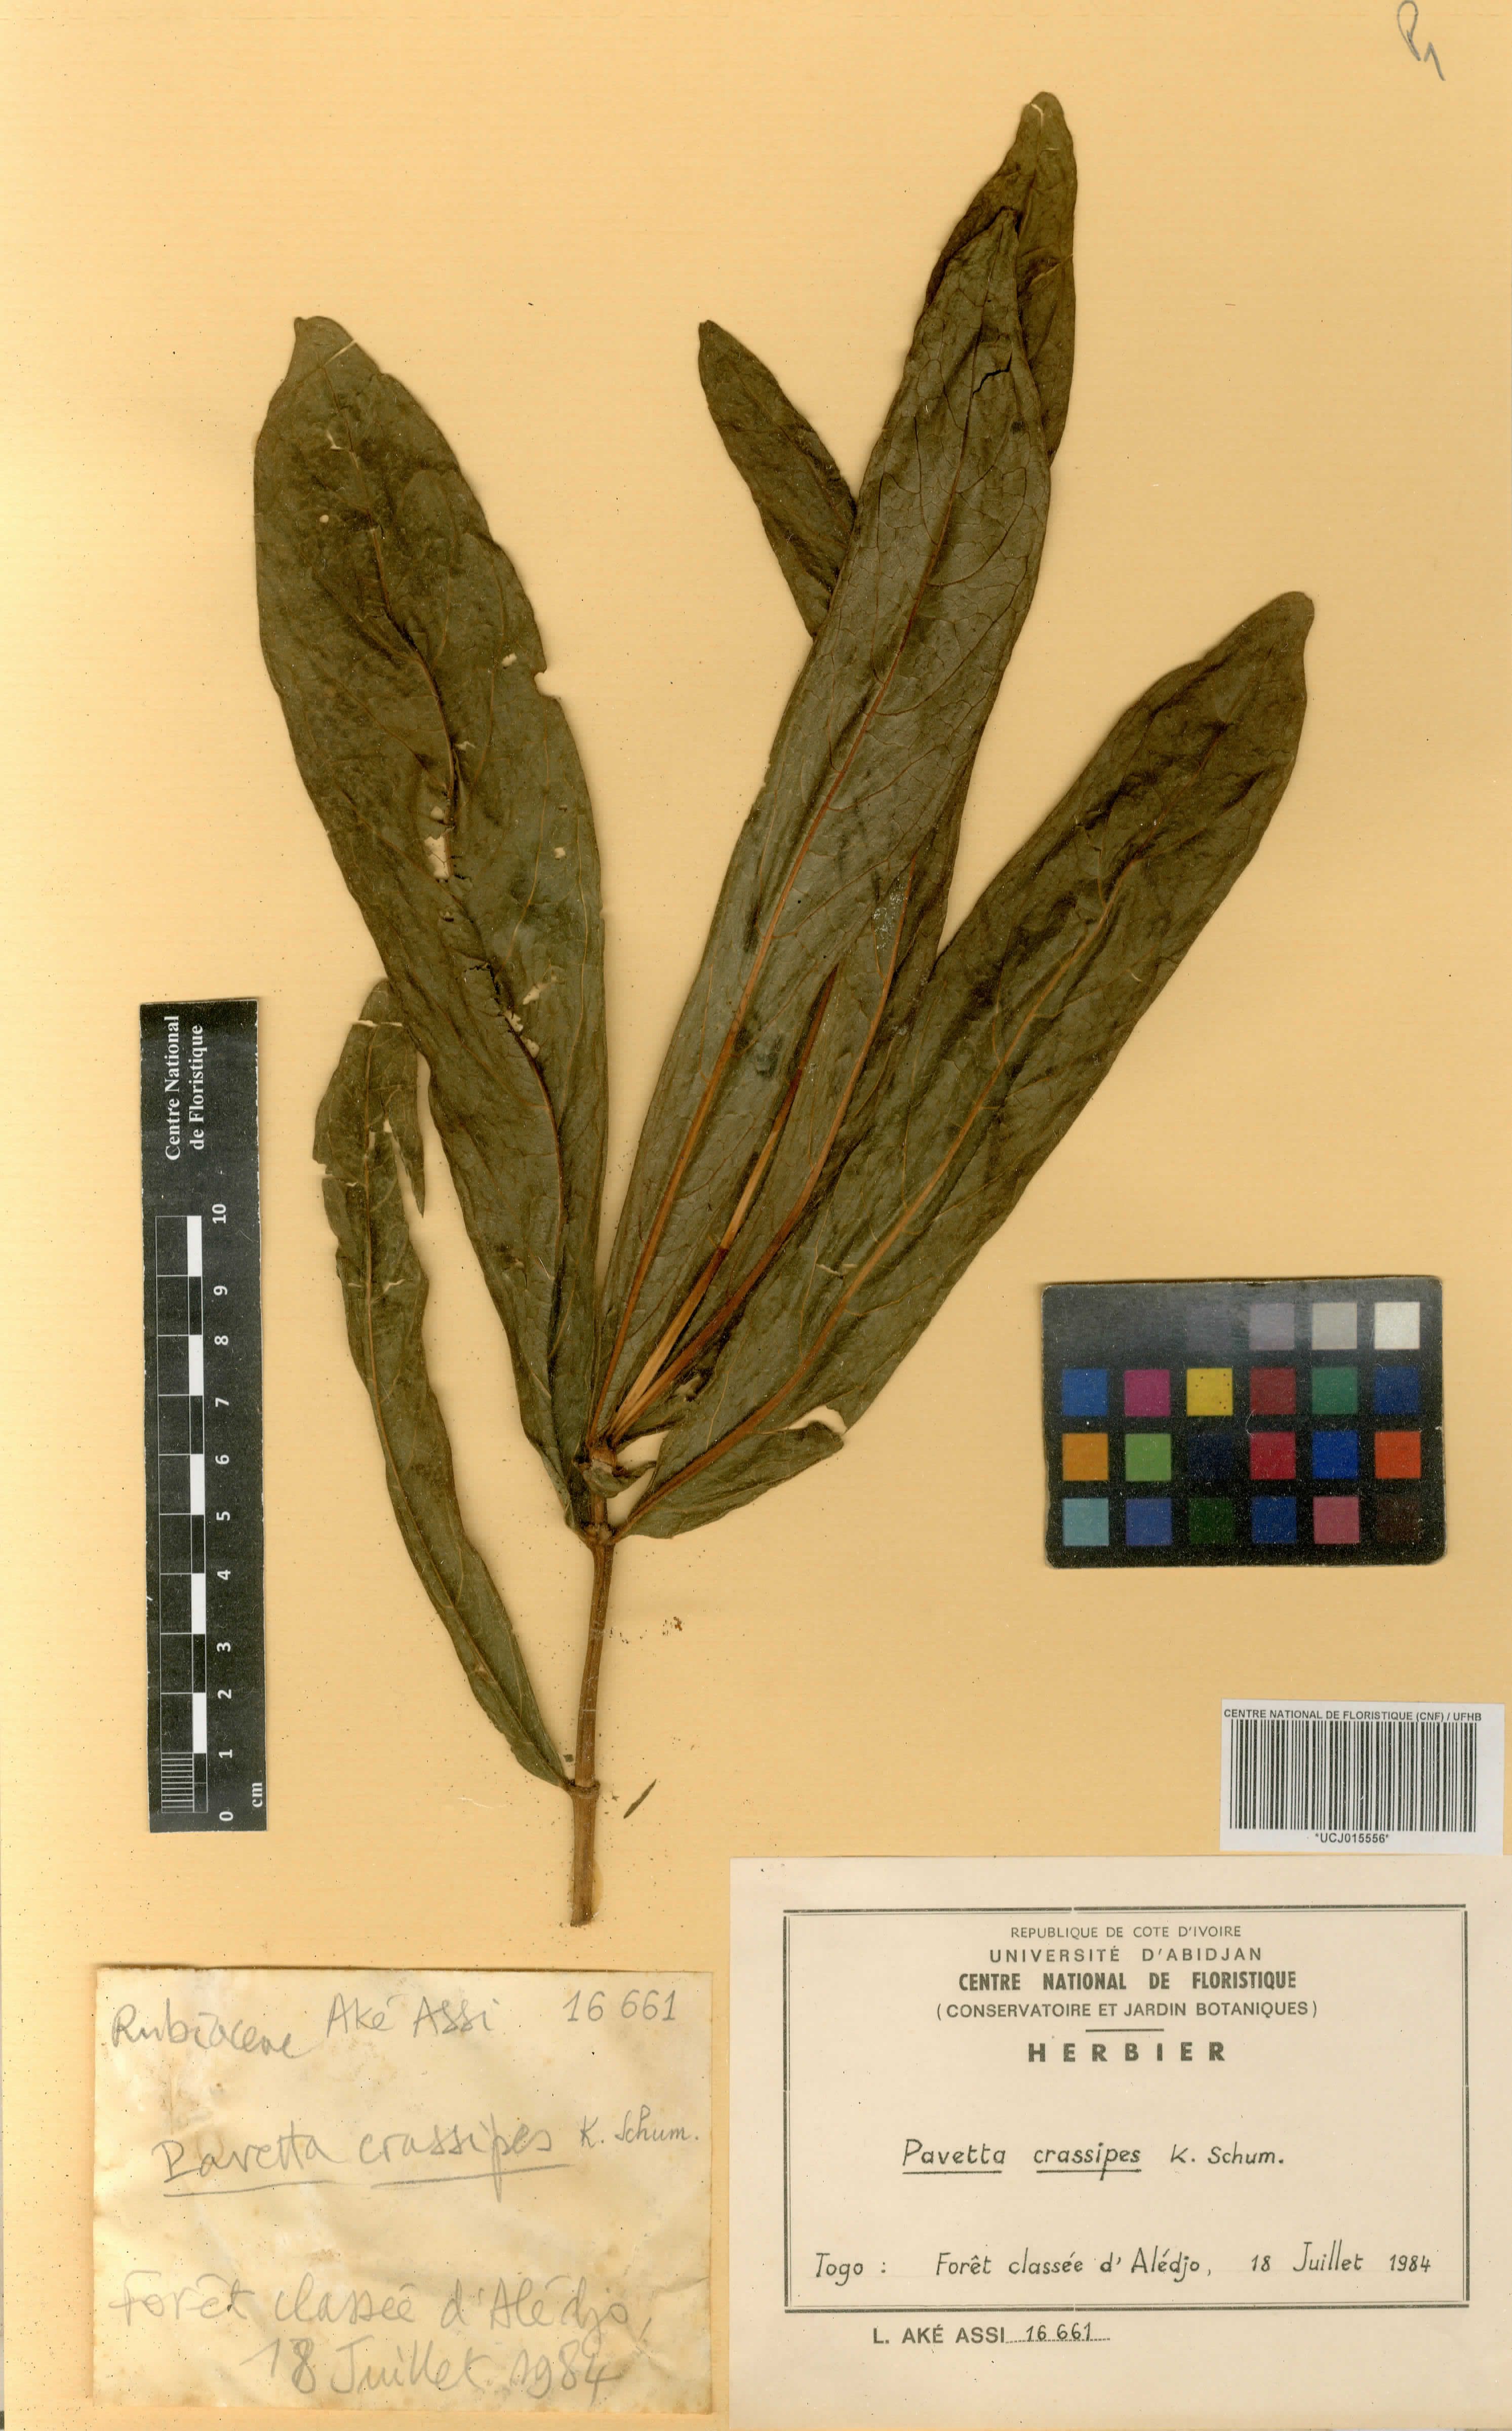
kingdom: Plantae
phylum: Tracheophyta
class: Magnoliopsida
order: Gentianales
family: Rubiaceae
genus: Pavetta
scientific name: Pavetta crassipes
